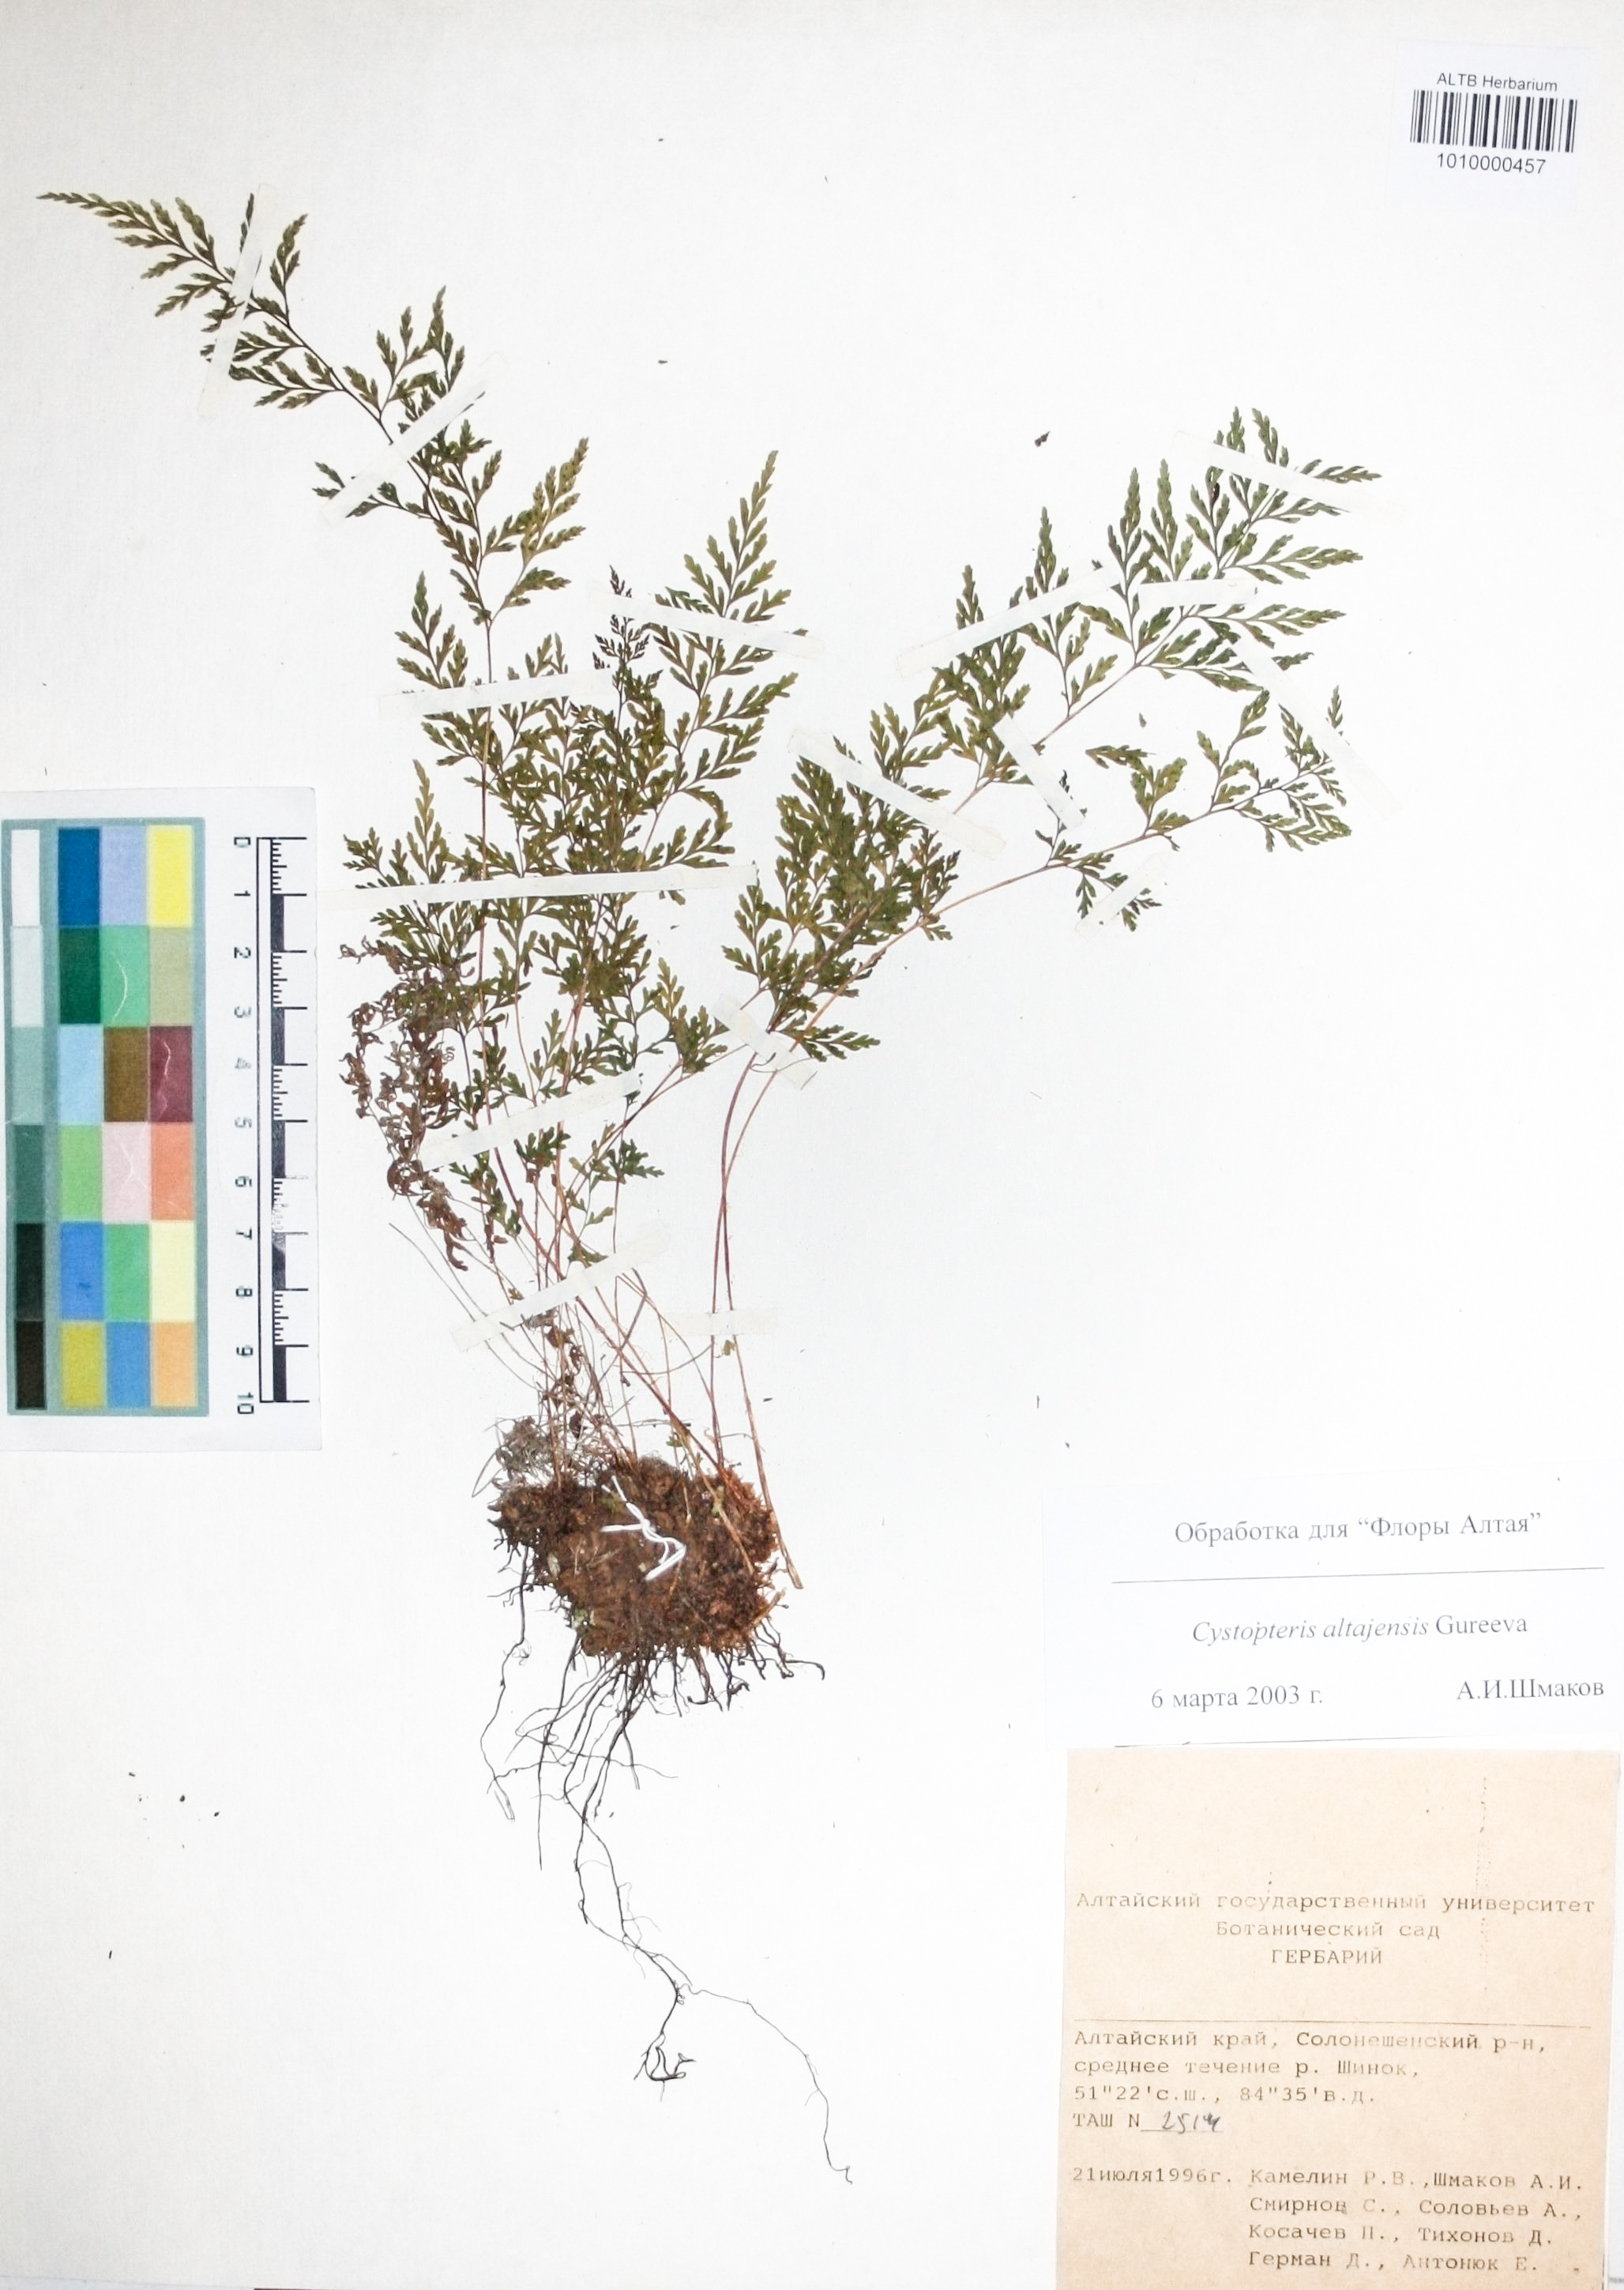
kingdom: Plantae
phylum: Tracheophyta
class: Polypodiopsida
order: Polypodiales
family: Cystopteridaceae
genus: Cystopteris
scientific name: Cystopteris diaphana
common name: Greenish bladder-fern
